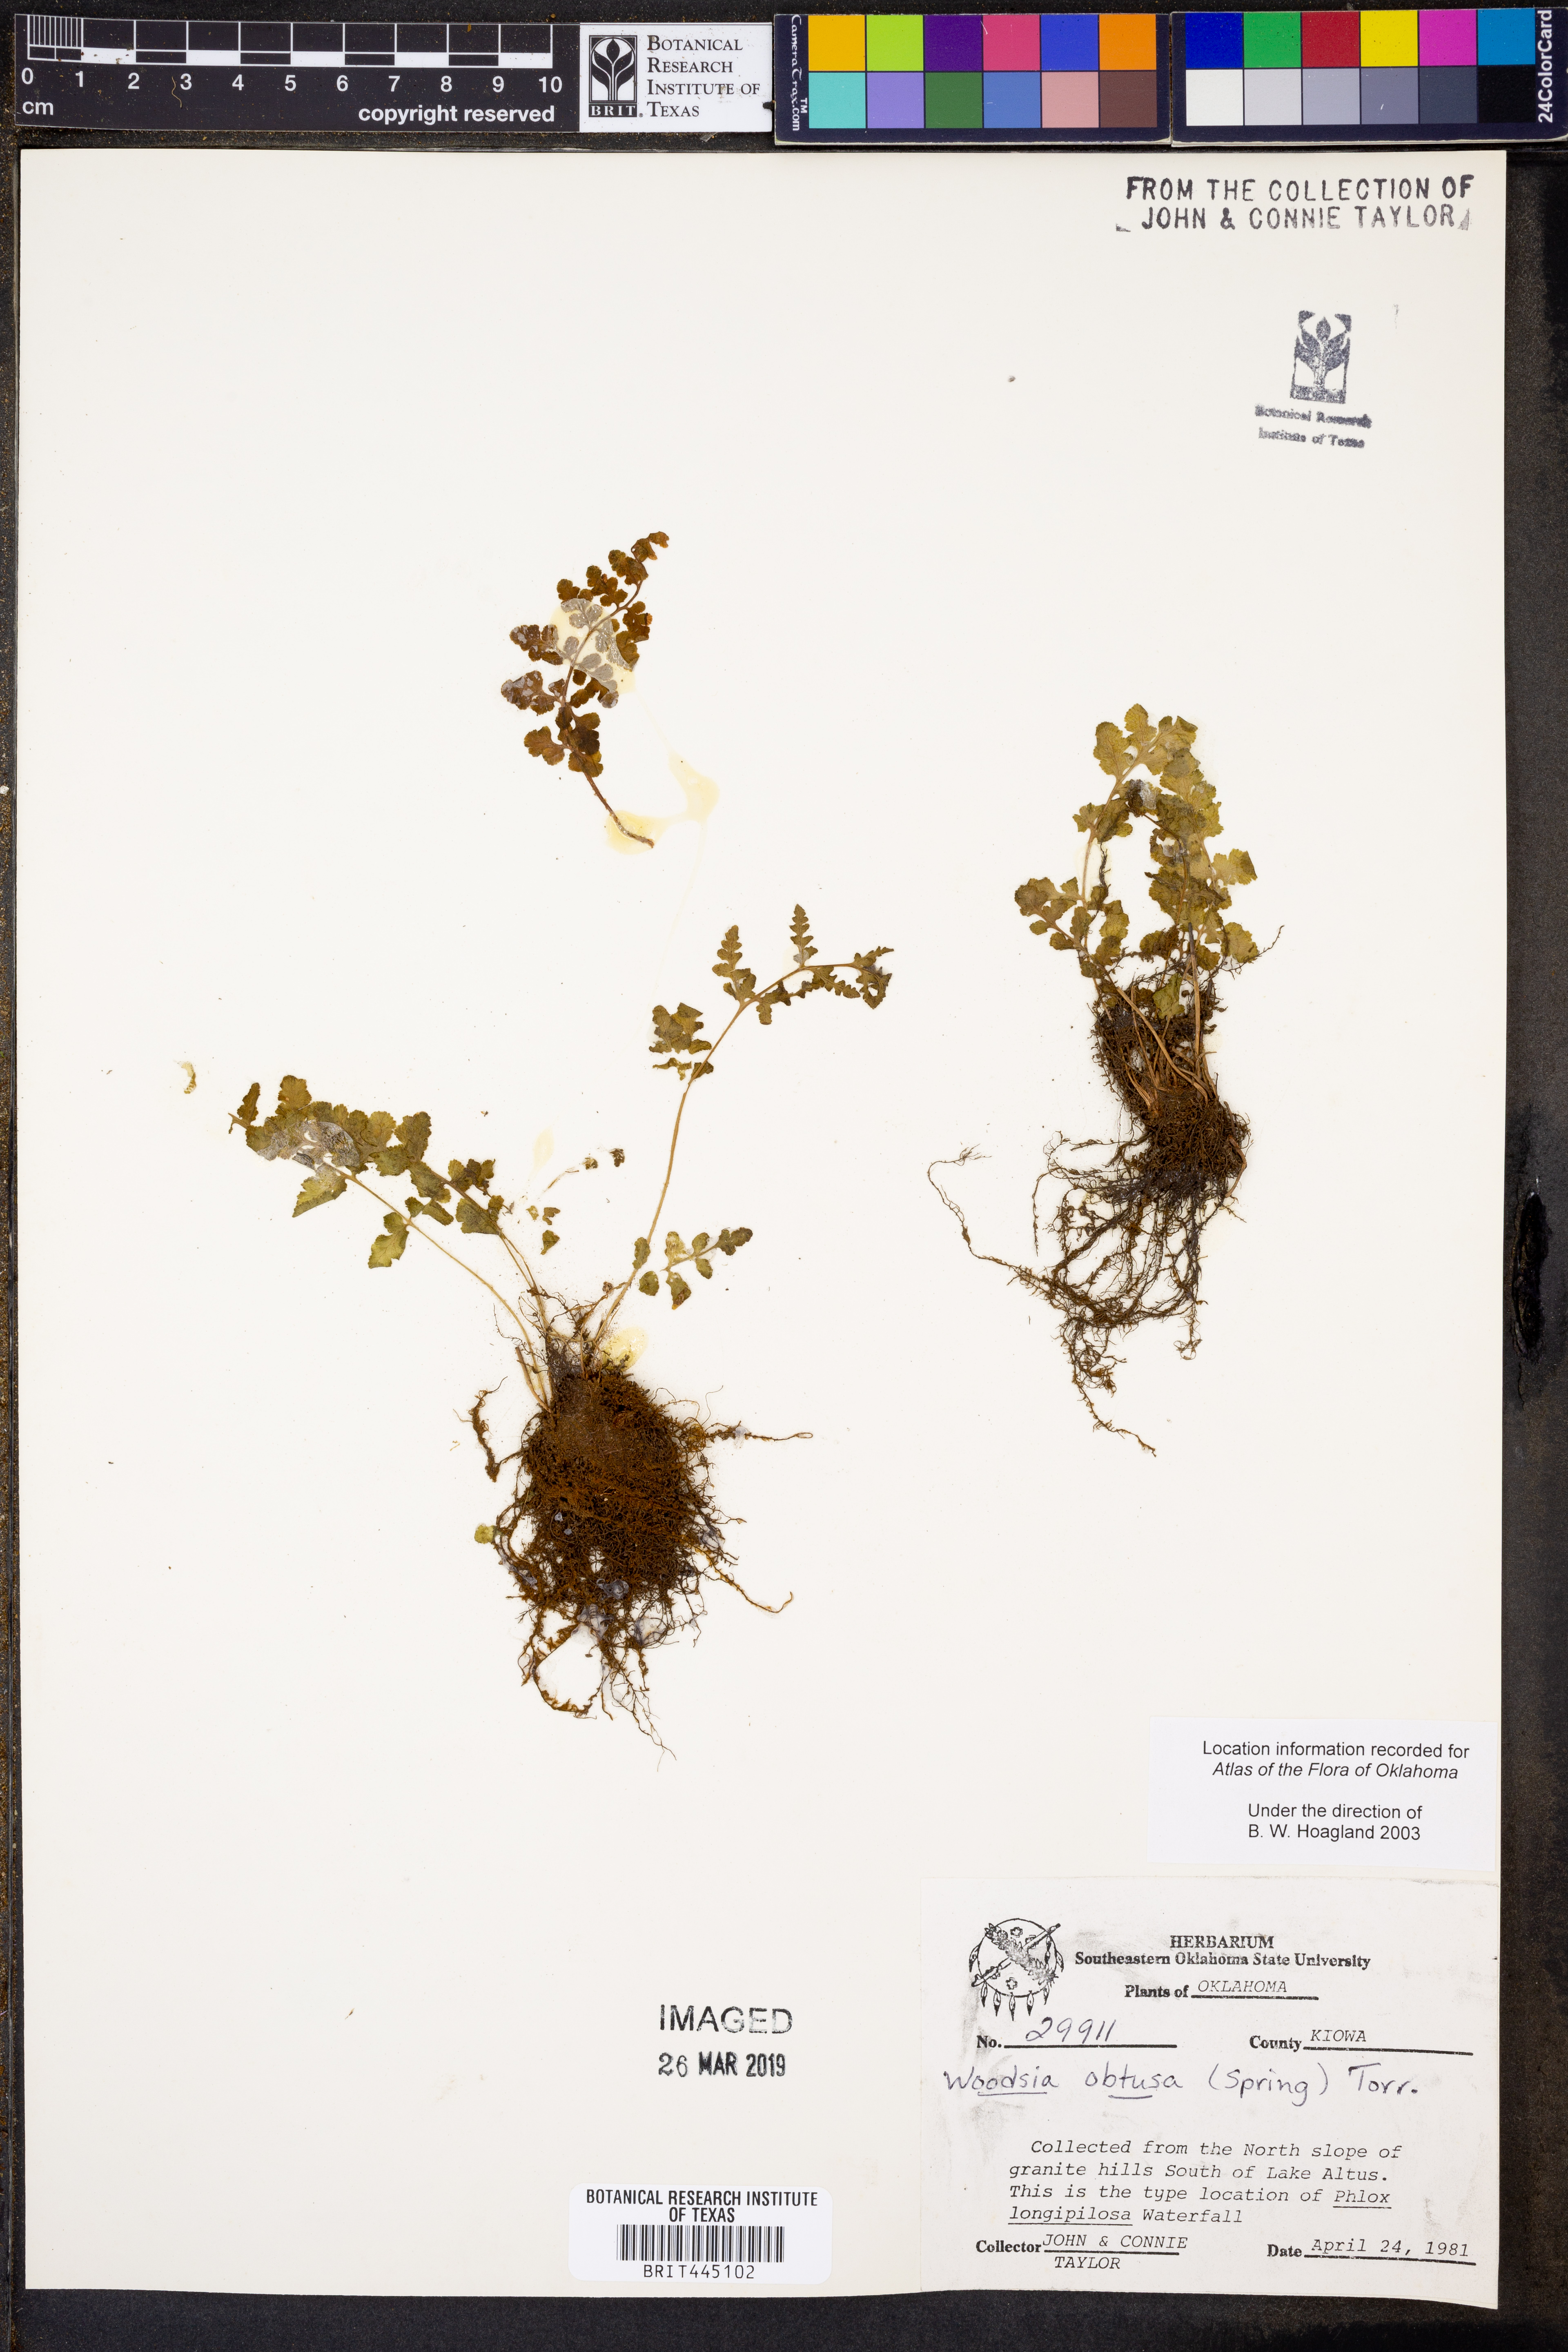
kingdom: Plantae
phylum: Tracheophyta
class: Polypodiopsida
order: Polypodiales
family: Woodsiaceae
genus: Physematium
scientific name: Physematium obtusum
